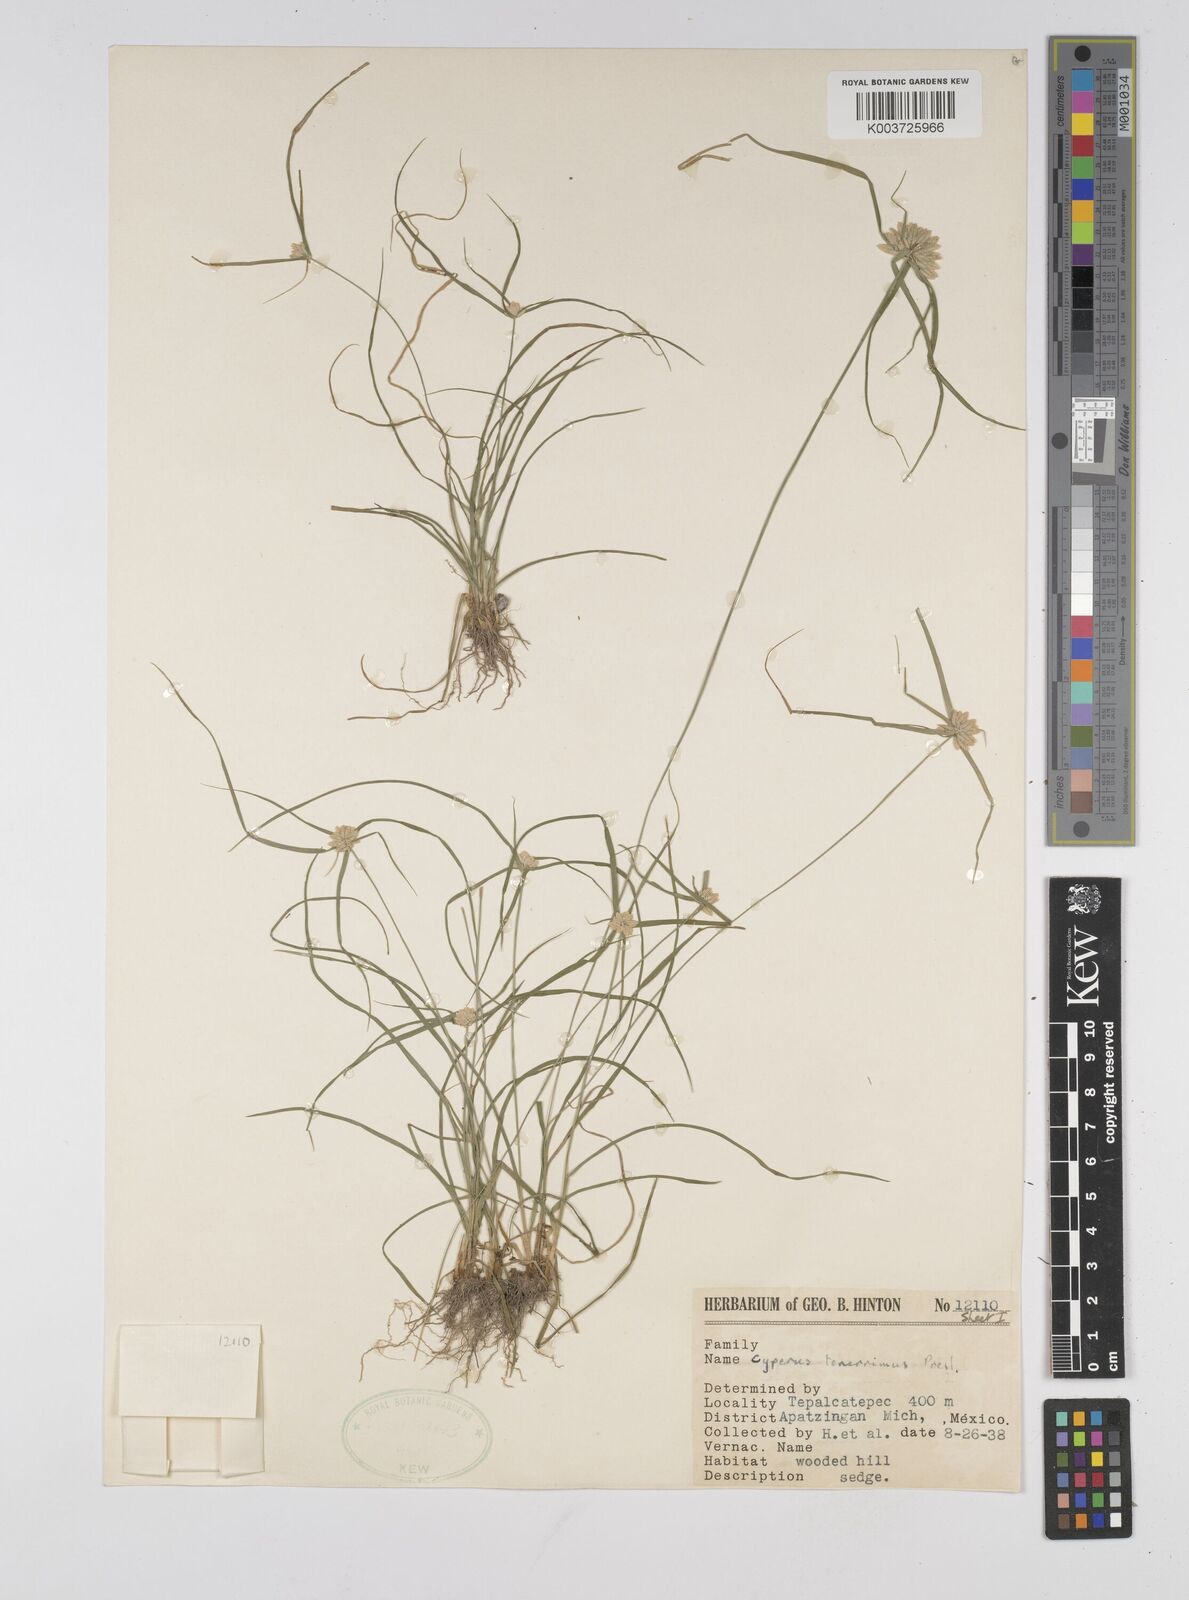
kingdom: Plantae
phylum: Tracheophyta
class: Liliopsida
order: Poales
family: Cyperaceae
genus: Cyperus
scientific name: Cyperus tenerrimus
